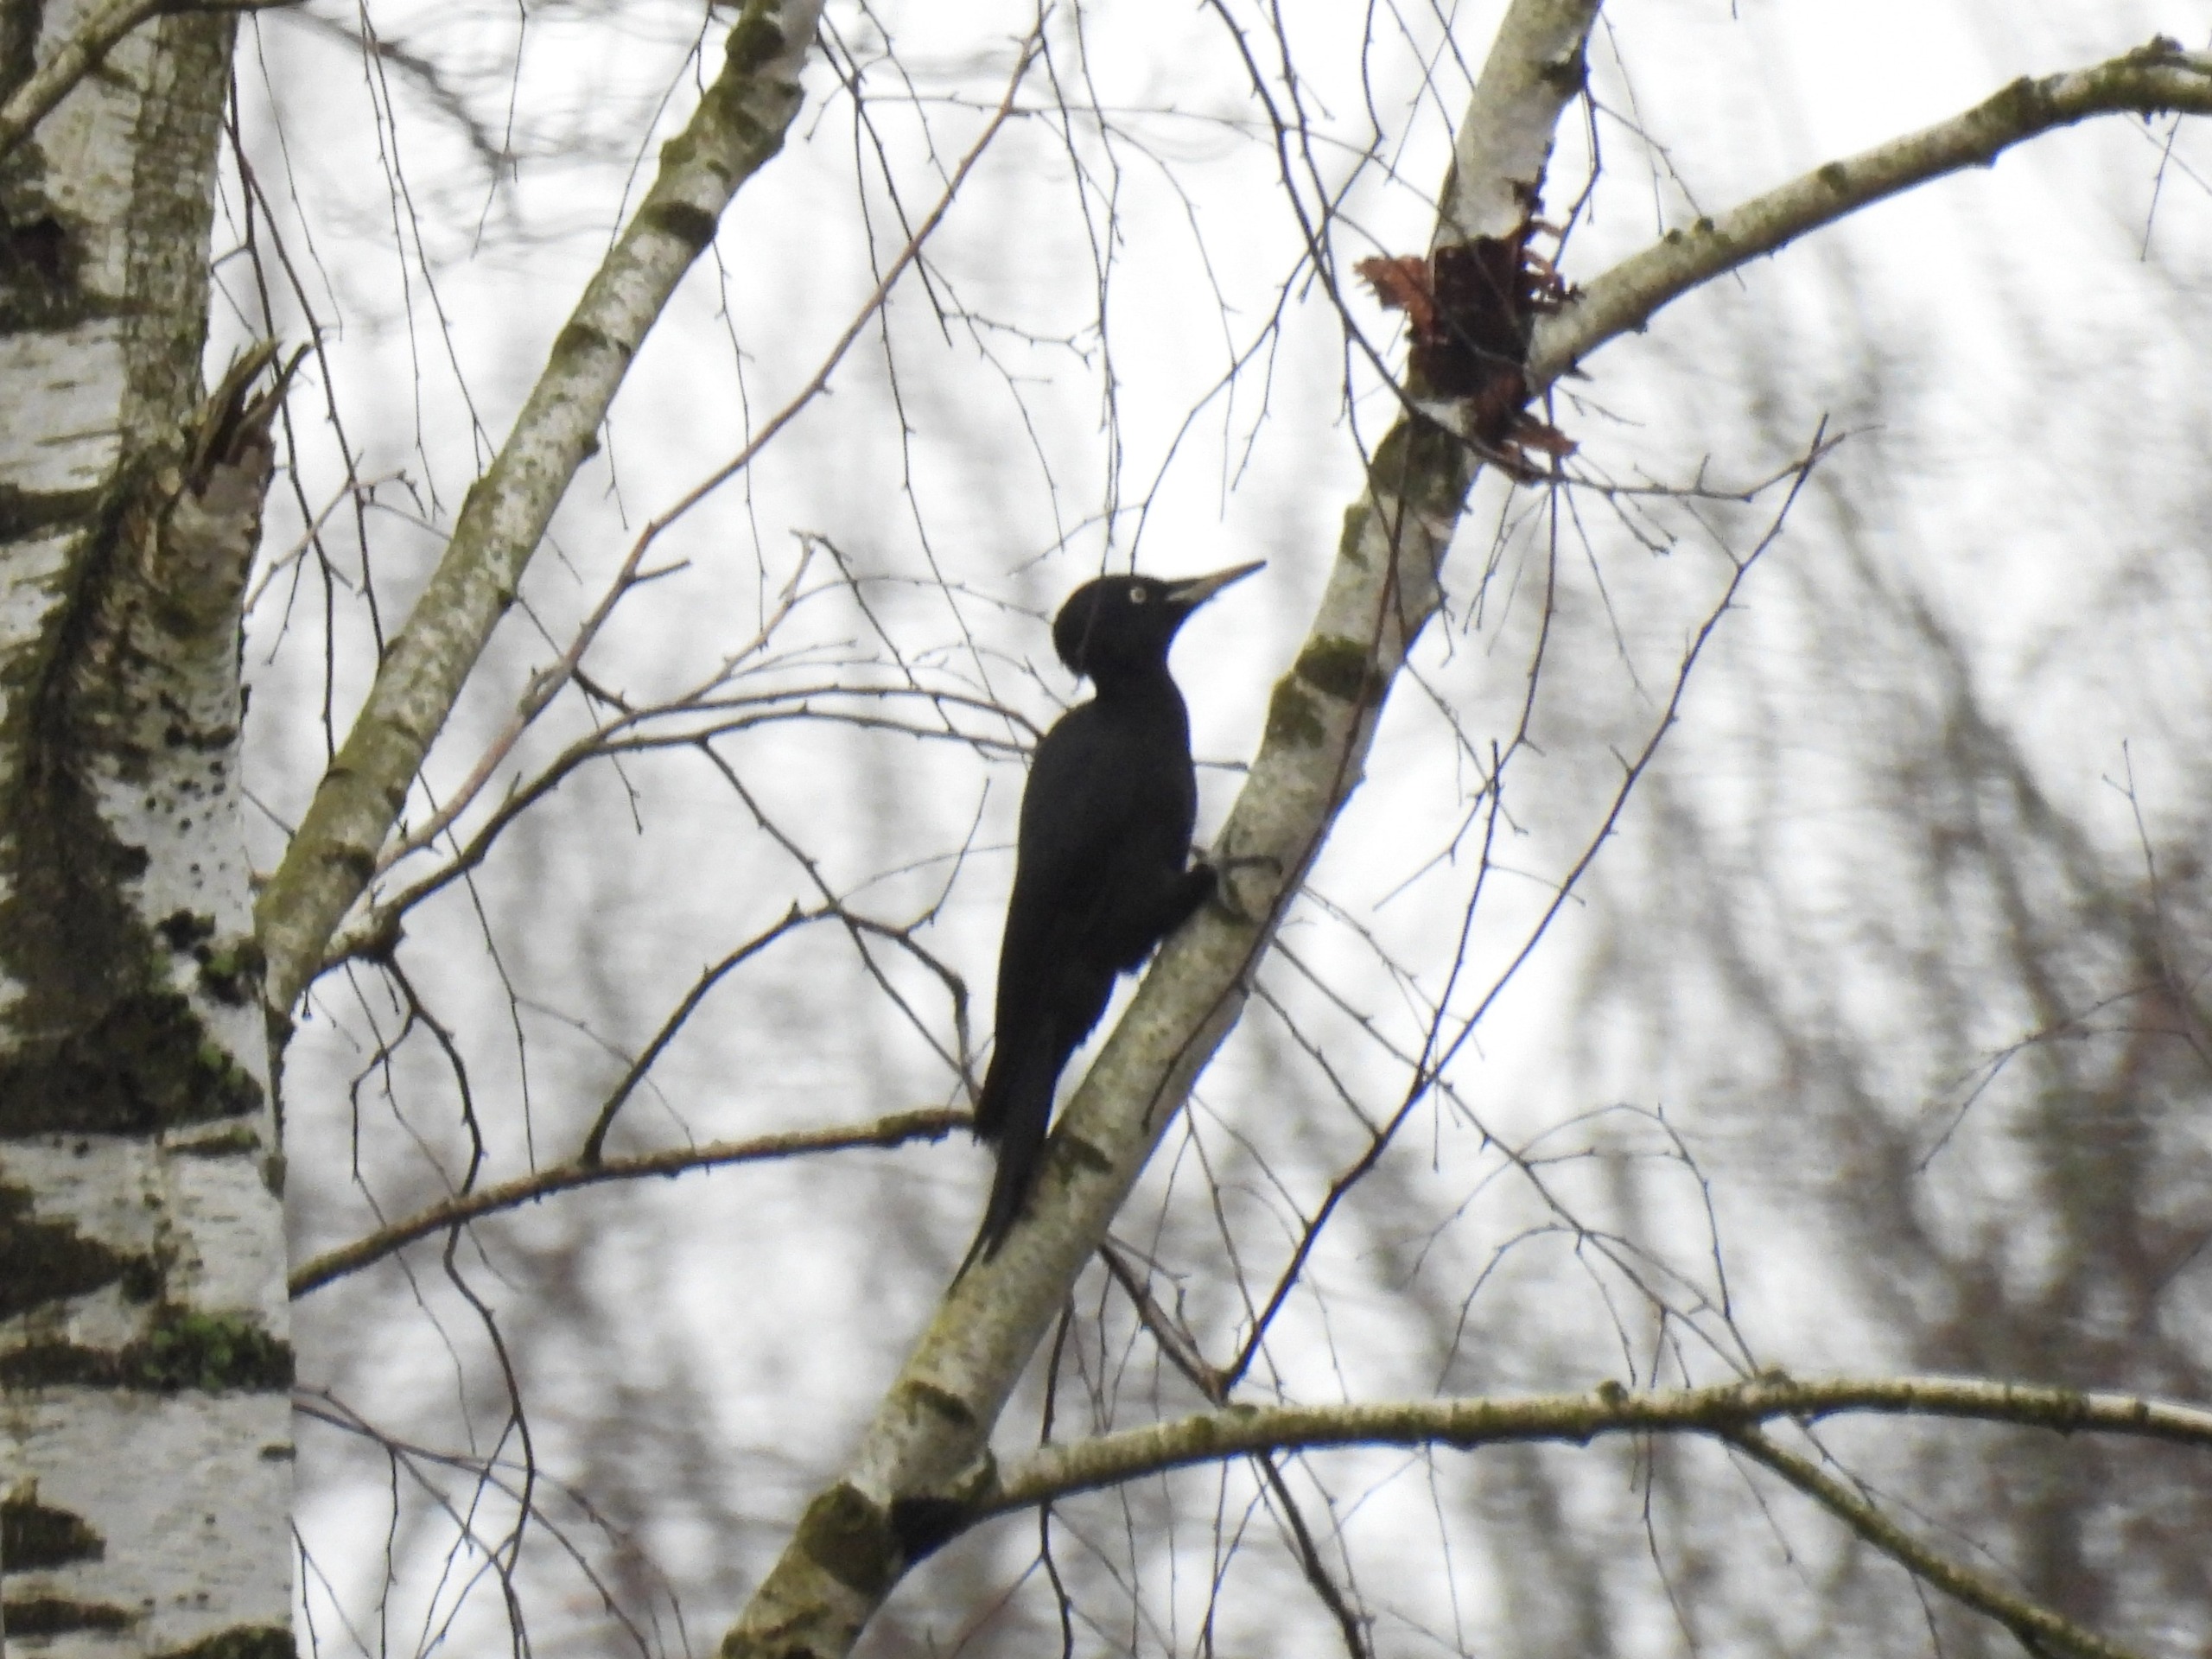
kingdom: Animalia
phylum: Chordata
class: Aves
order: Piciformes
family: Picidae
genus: Dryocopus
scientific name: Dryocopus martius
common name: Sortspætte
